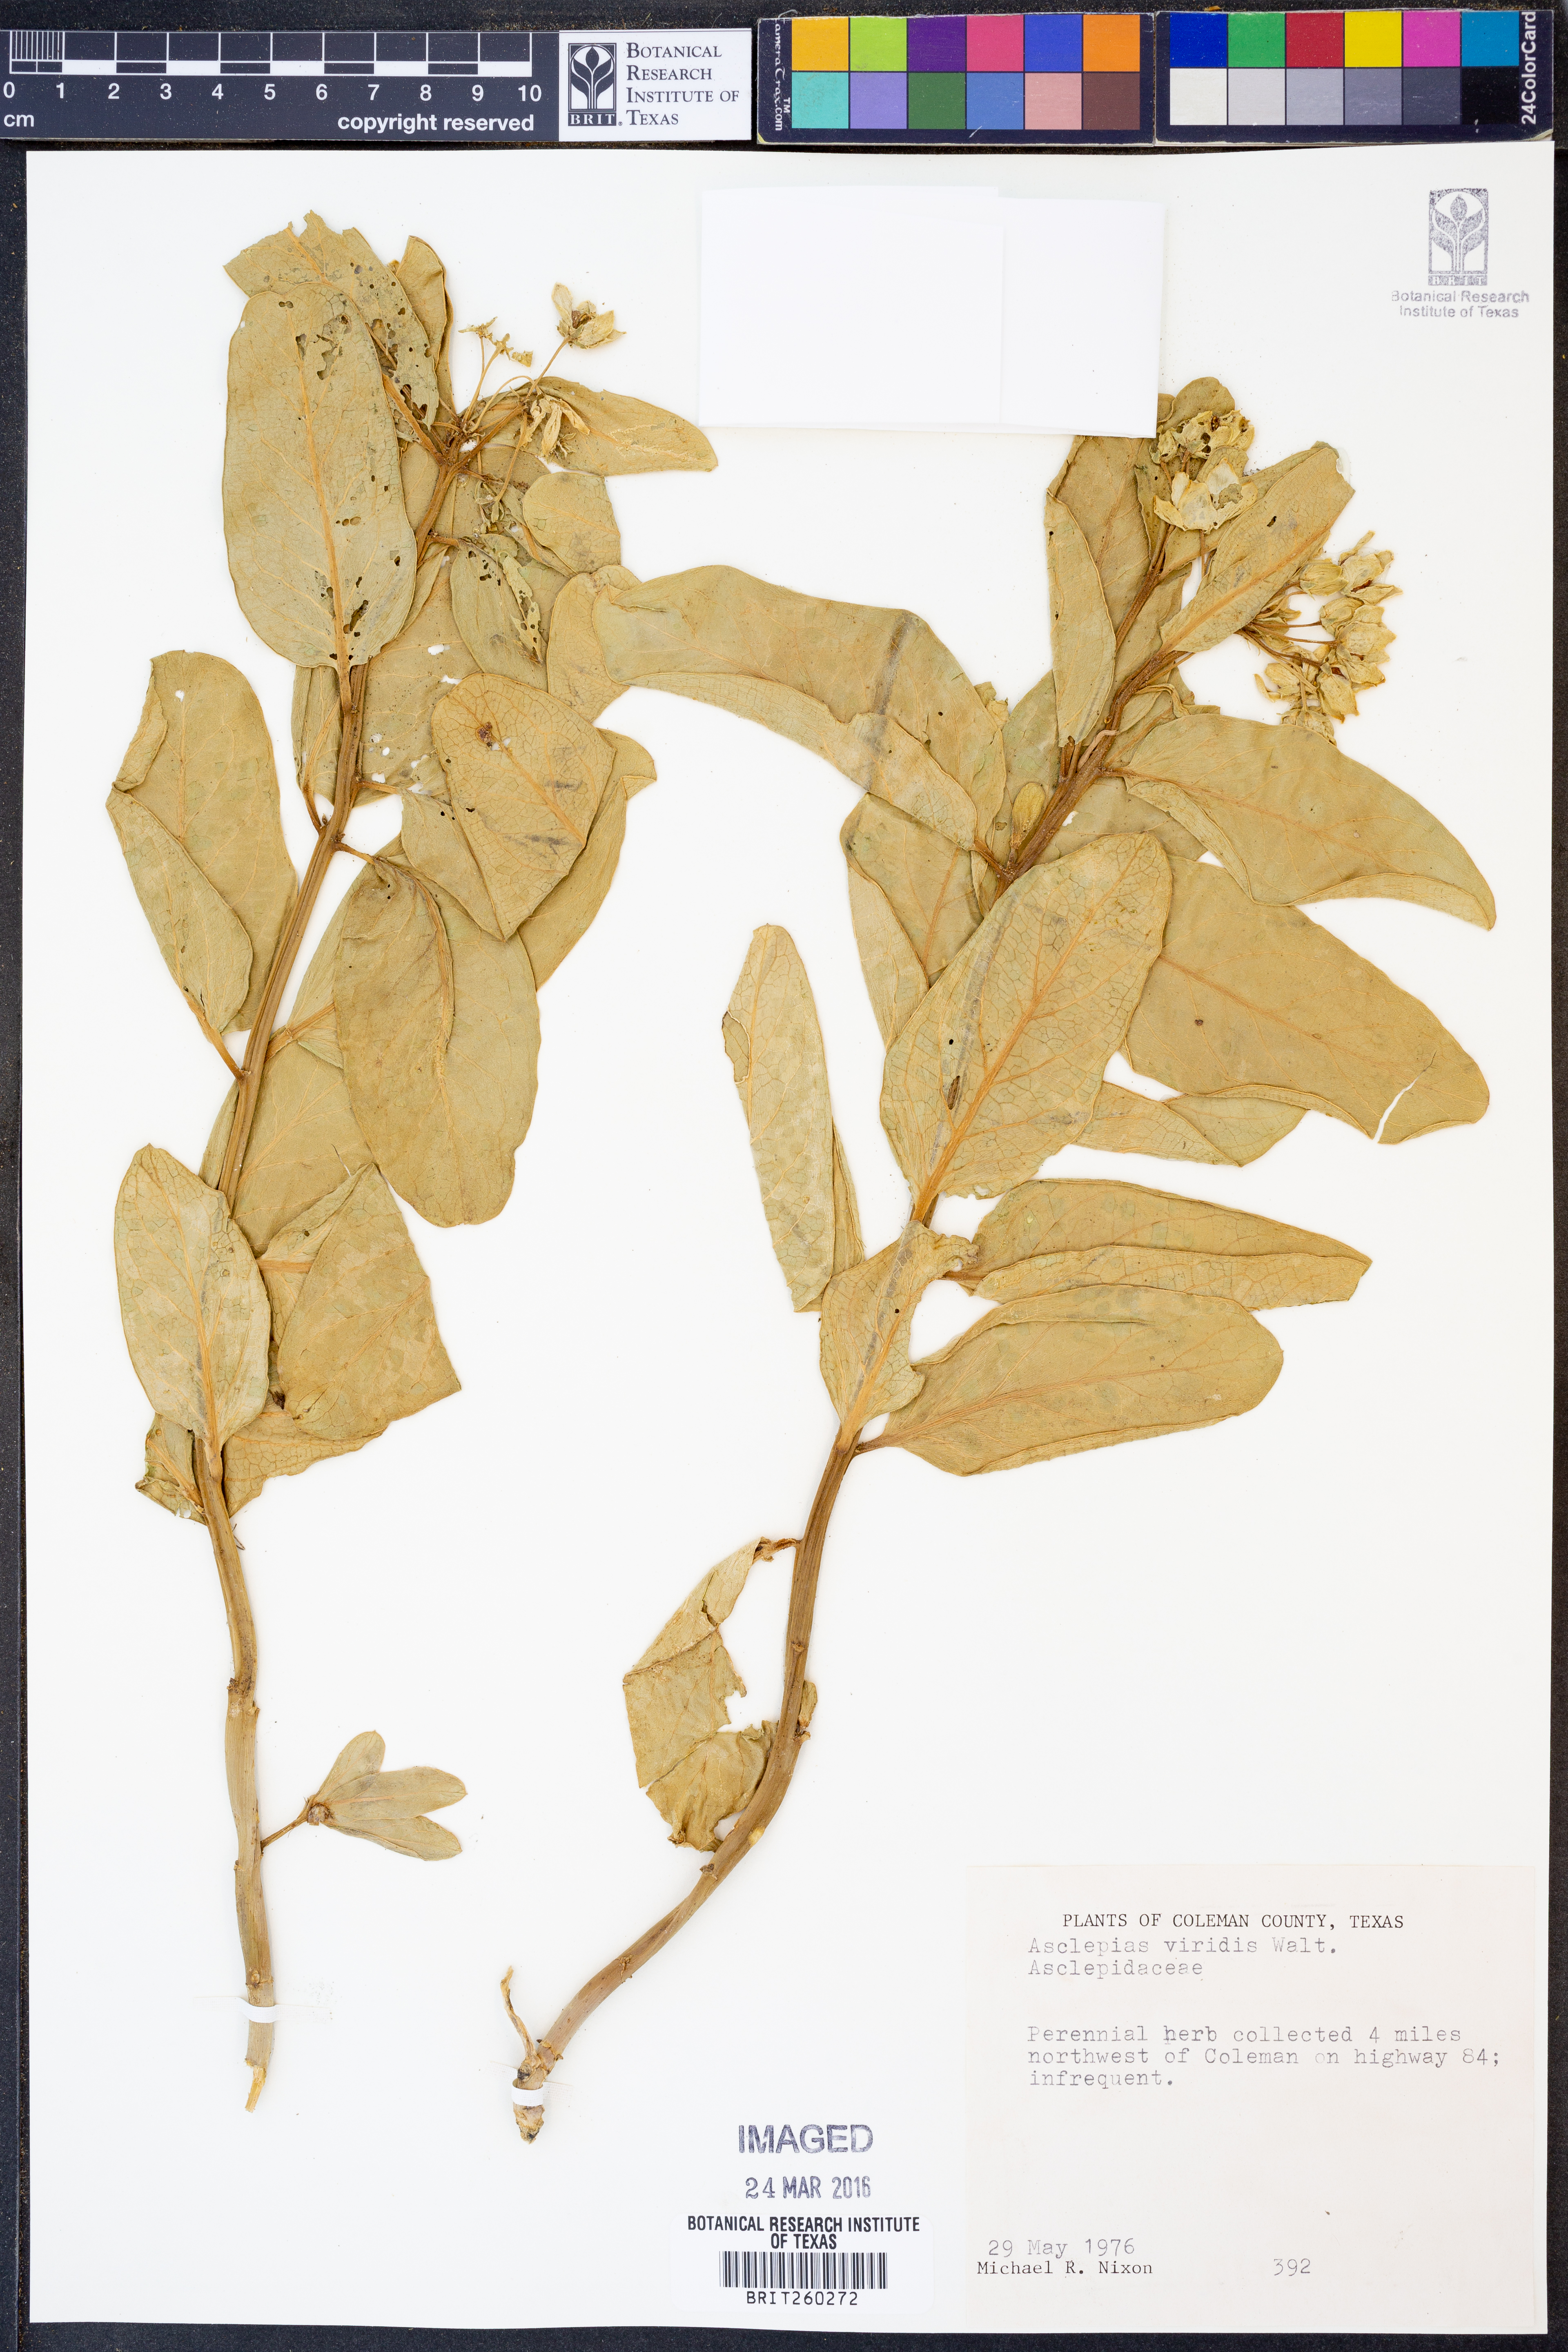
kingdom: Plantae
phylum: Tracheophyta
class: Magnoliopsida
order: Gentianales
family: Apocynaceae
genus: Asclepias
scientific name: Asclepias viridis
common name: Antelope-horns
